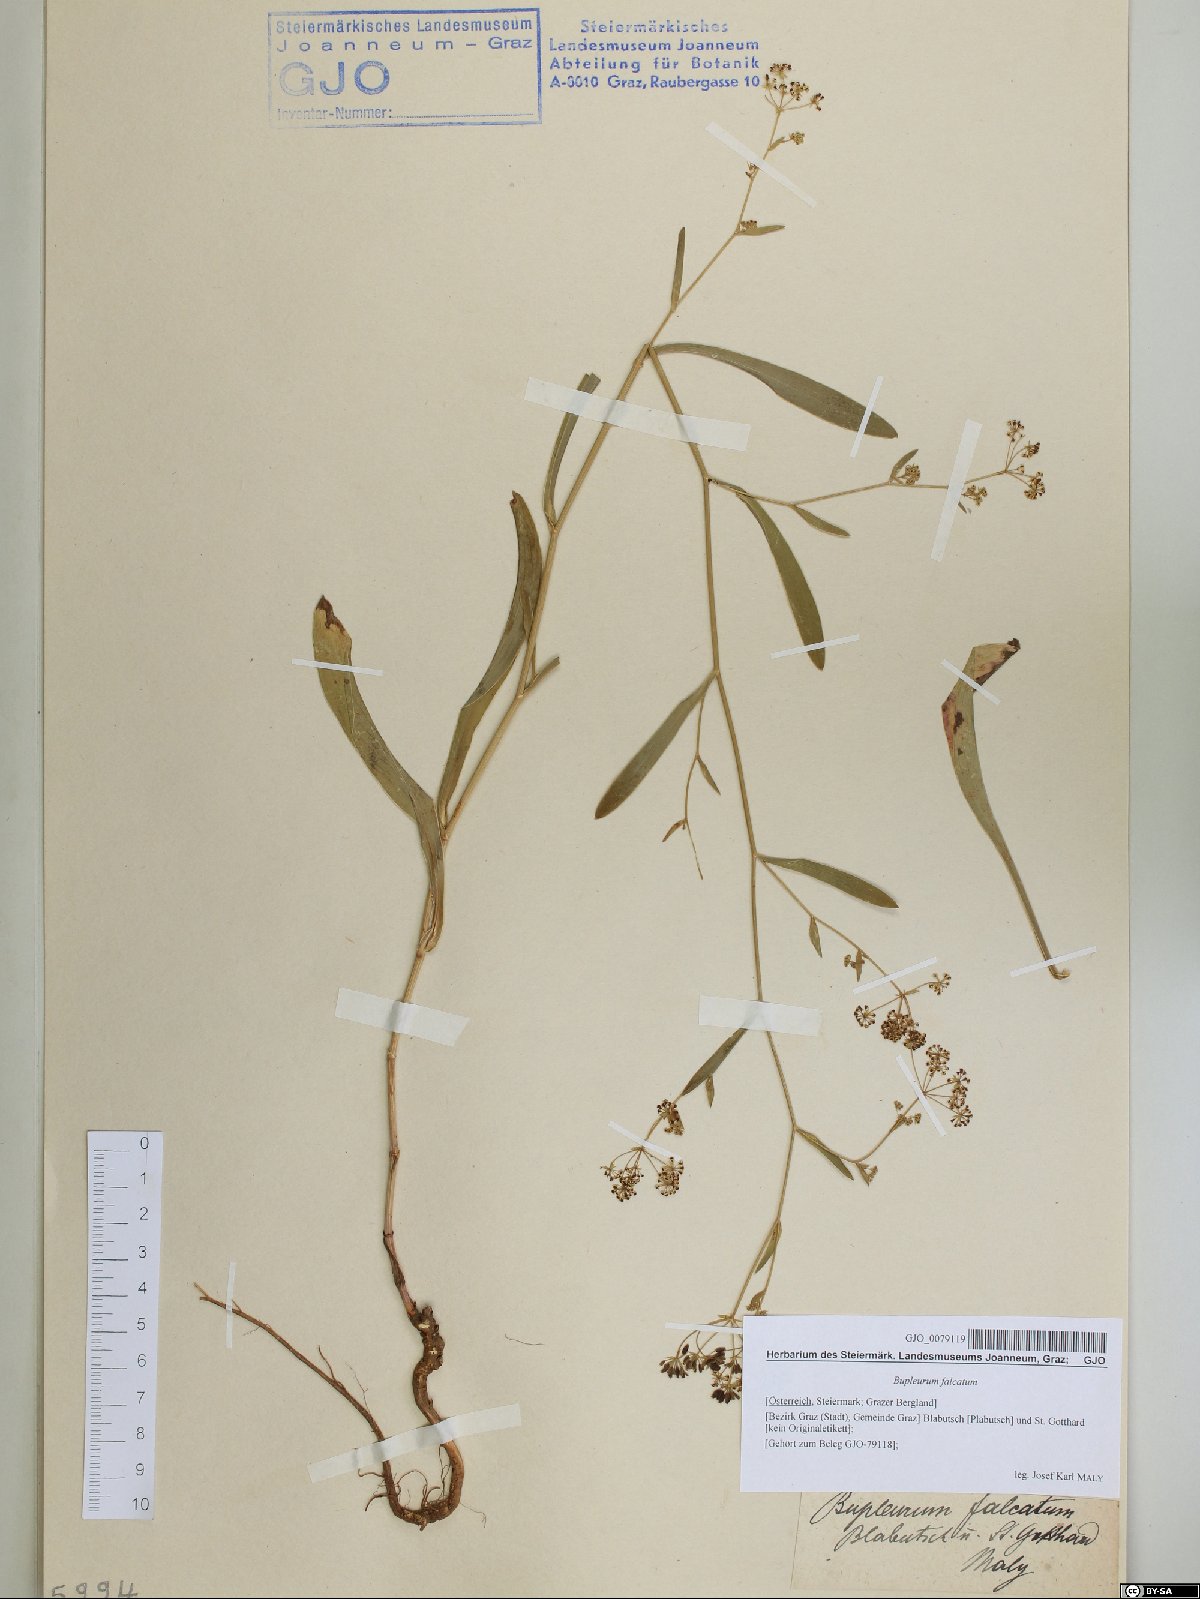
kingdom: Plantae
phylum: Tracheophyta
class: Magnoliopsida
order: Apiales
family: Apiaceae
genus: Bupleurum
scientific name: Bupleurum falcatum
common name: Sickle-leaved hare's-ear
